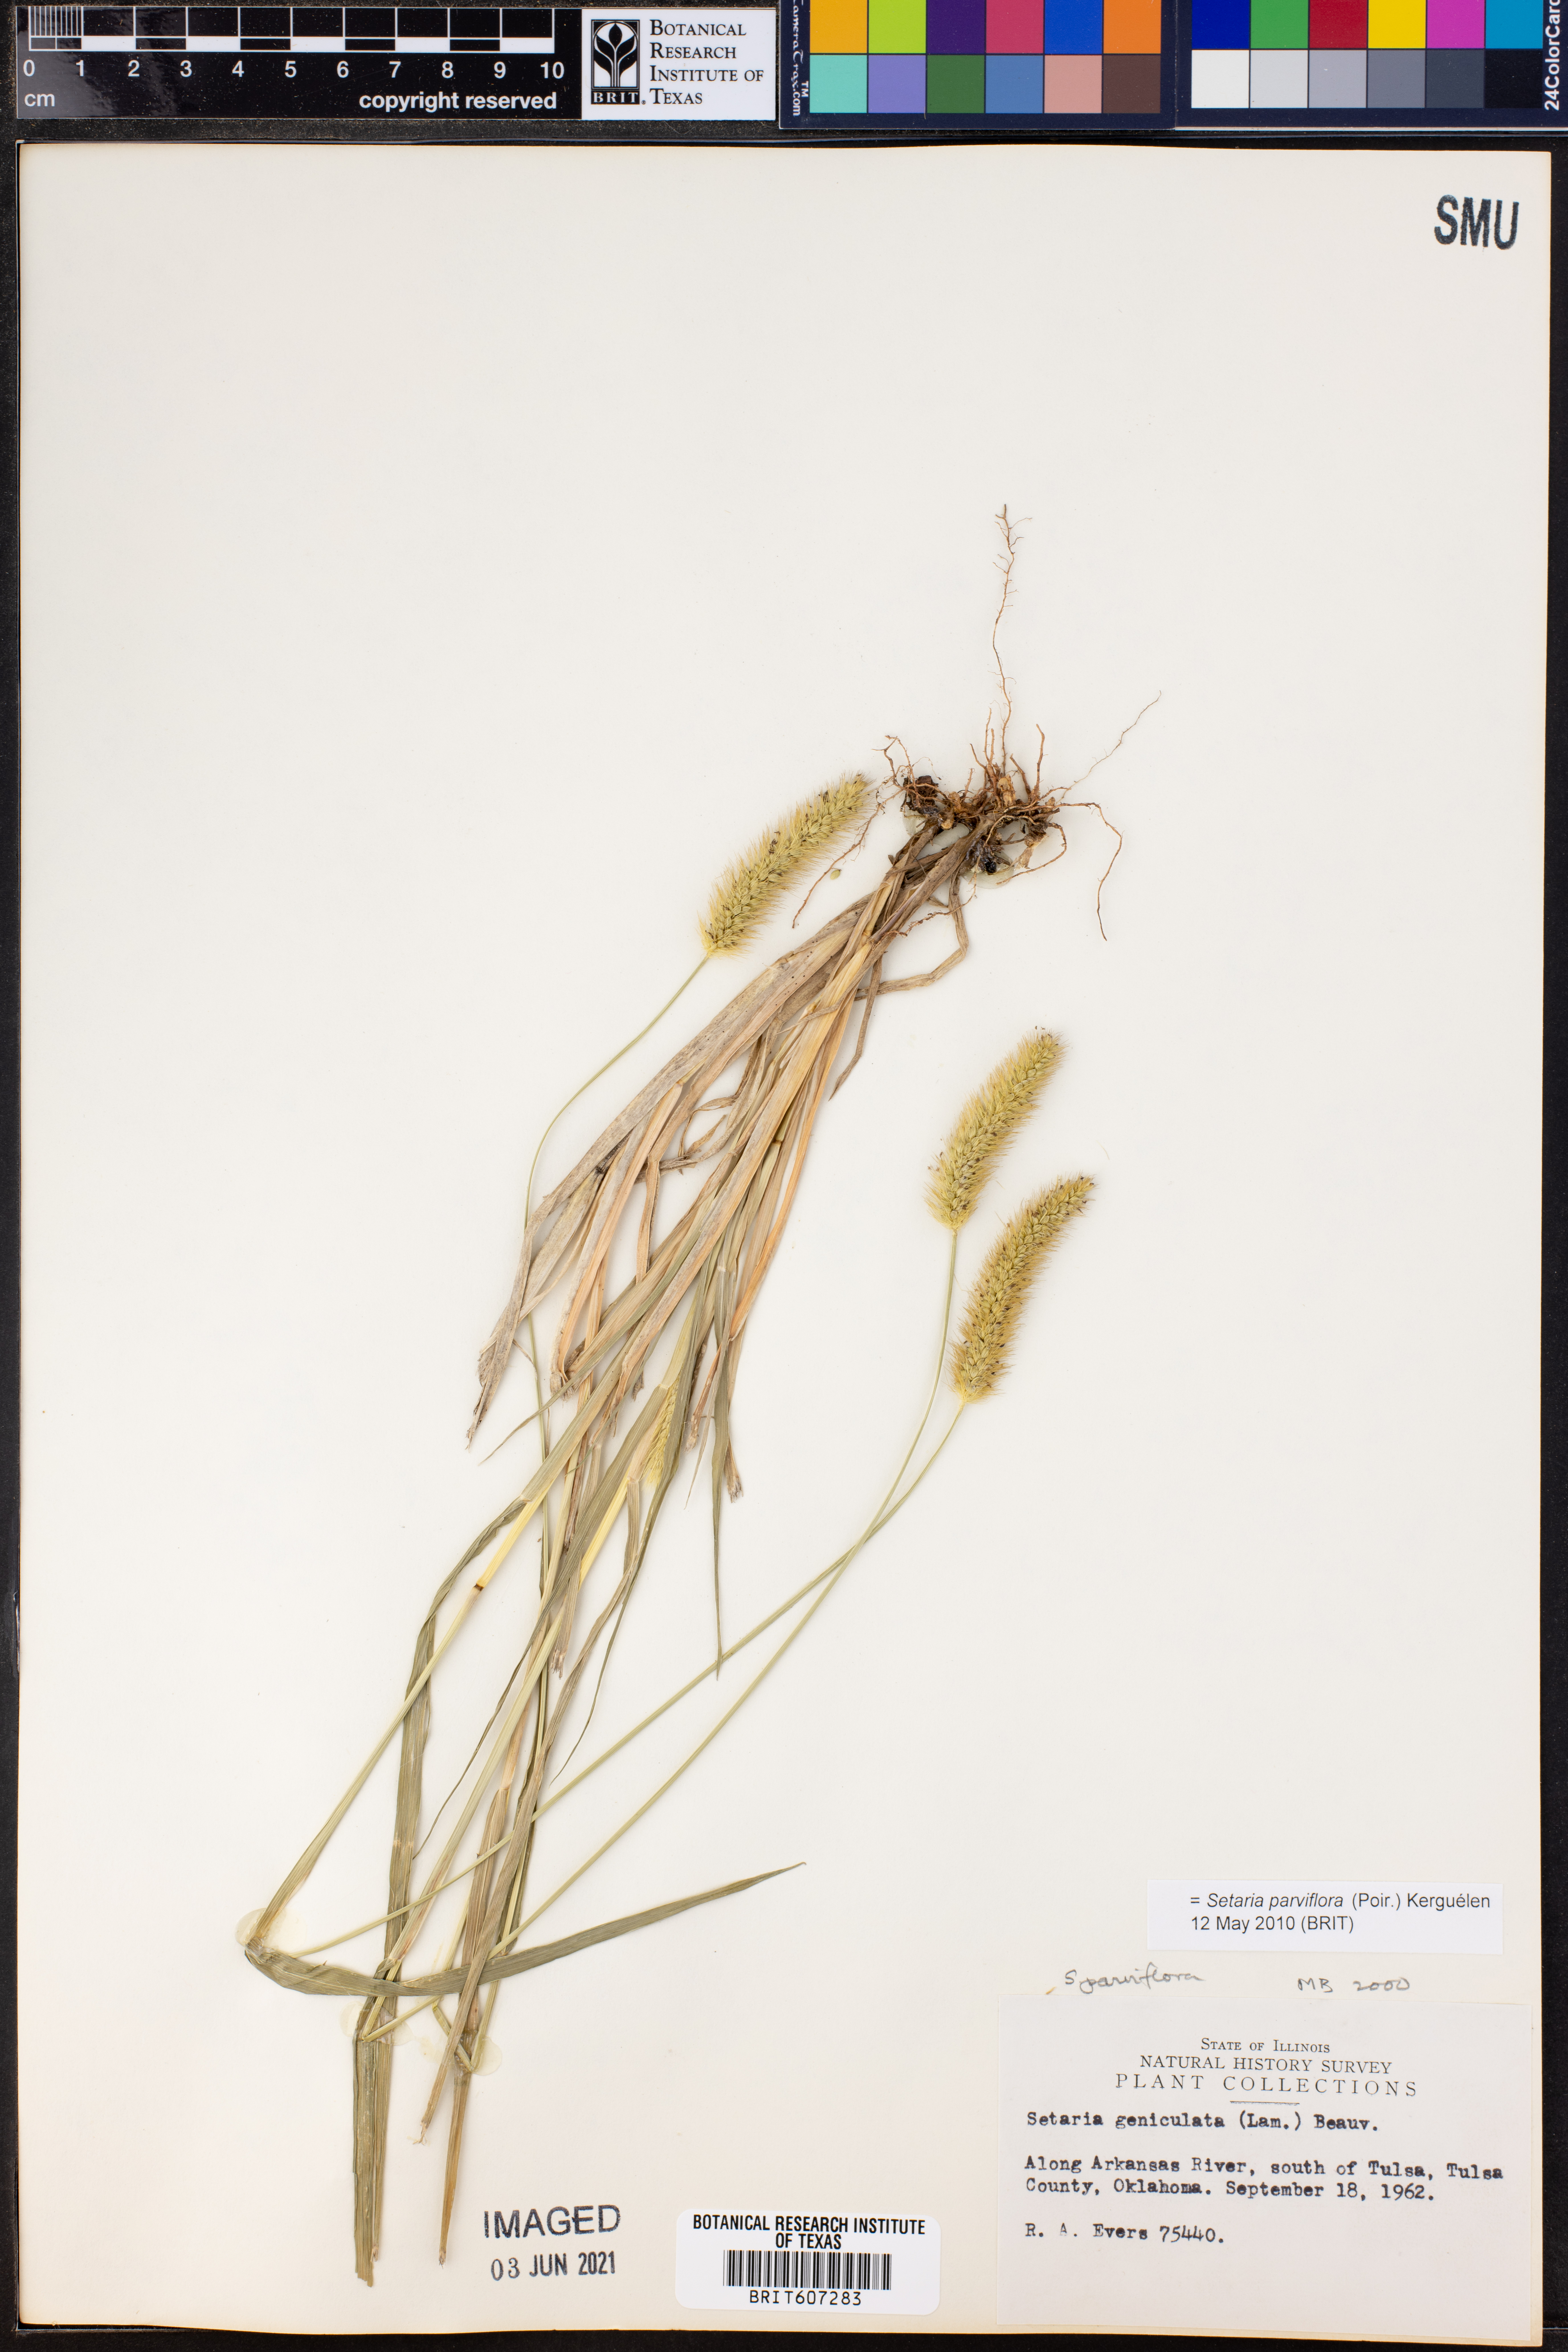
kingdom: Plantae
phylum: Tracheophyta
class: Liliopsida
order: Poales
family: Poaceae
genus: Setaria
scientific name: Setaria parviflora
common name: Knotroot bristle-grass
